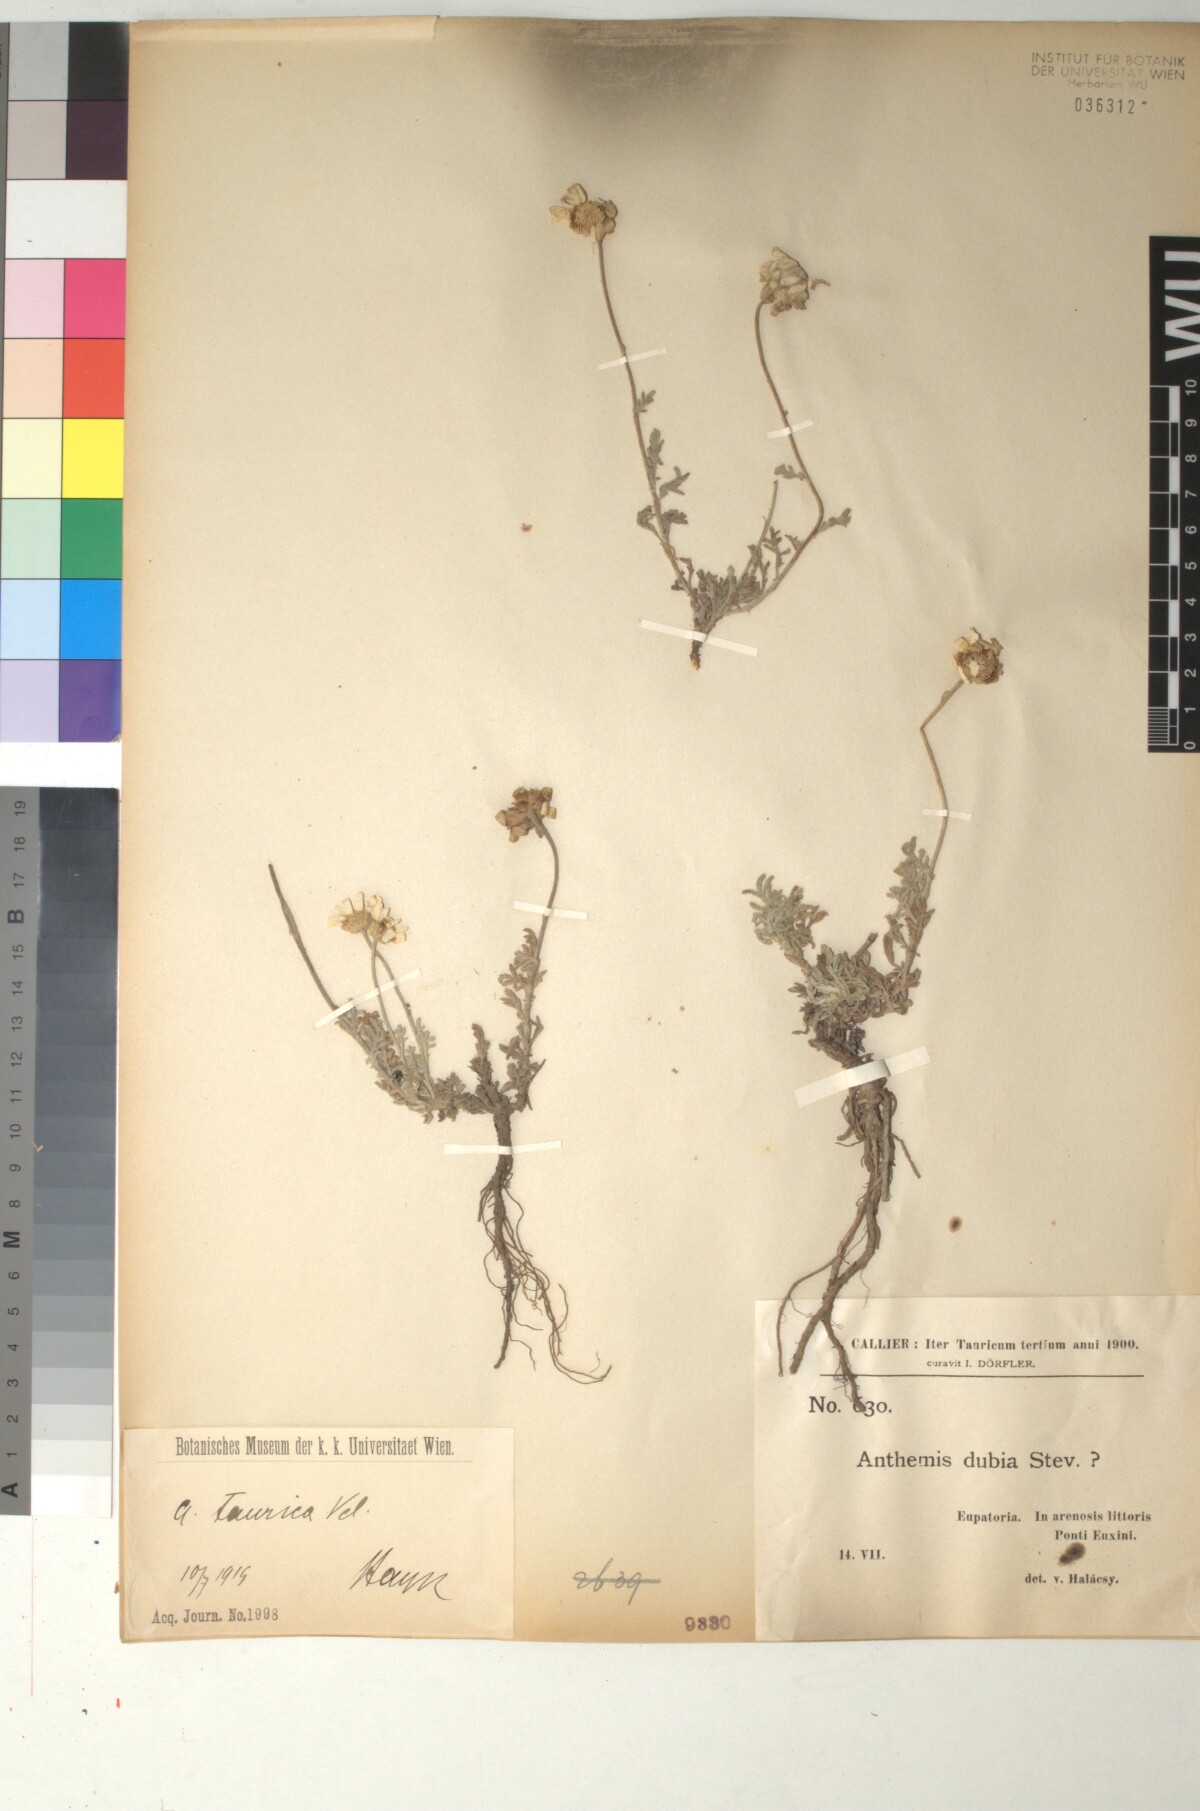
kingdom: Plantae
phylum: Tracheophyta
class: Magnoliopsida
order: Asterales
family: Asteraceae
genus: Cota
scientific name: Cota dubia
